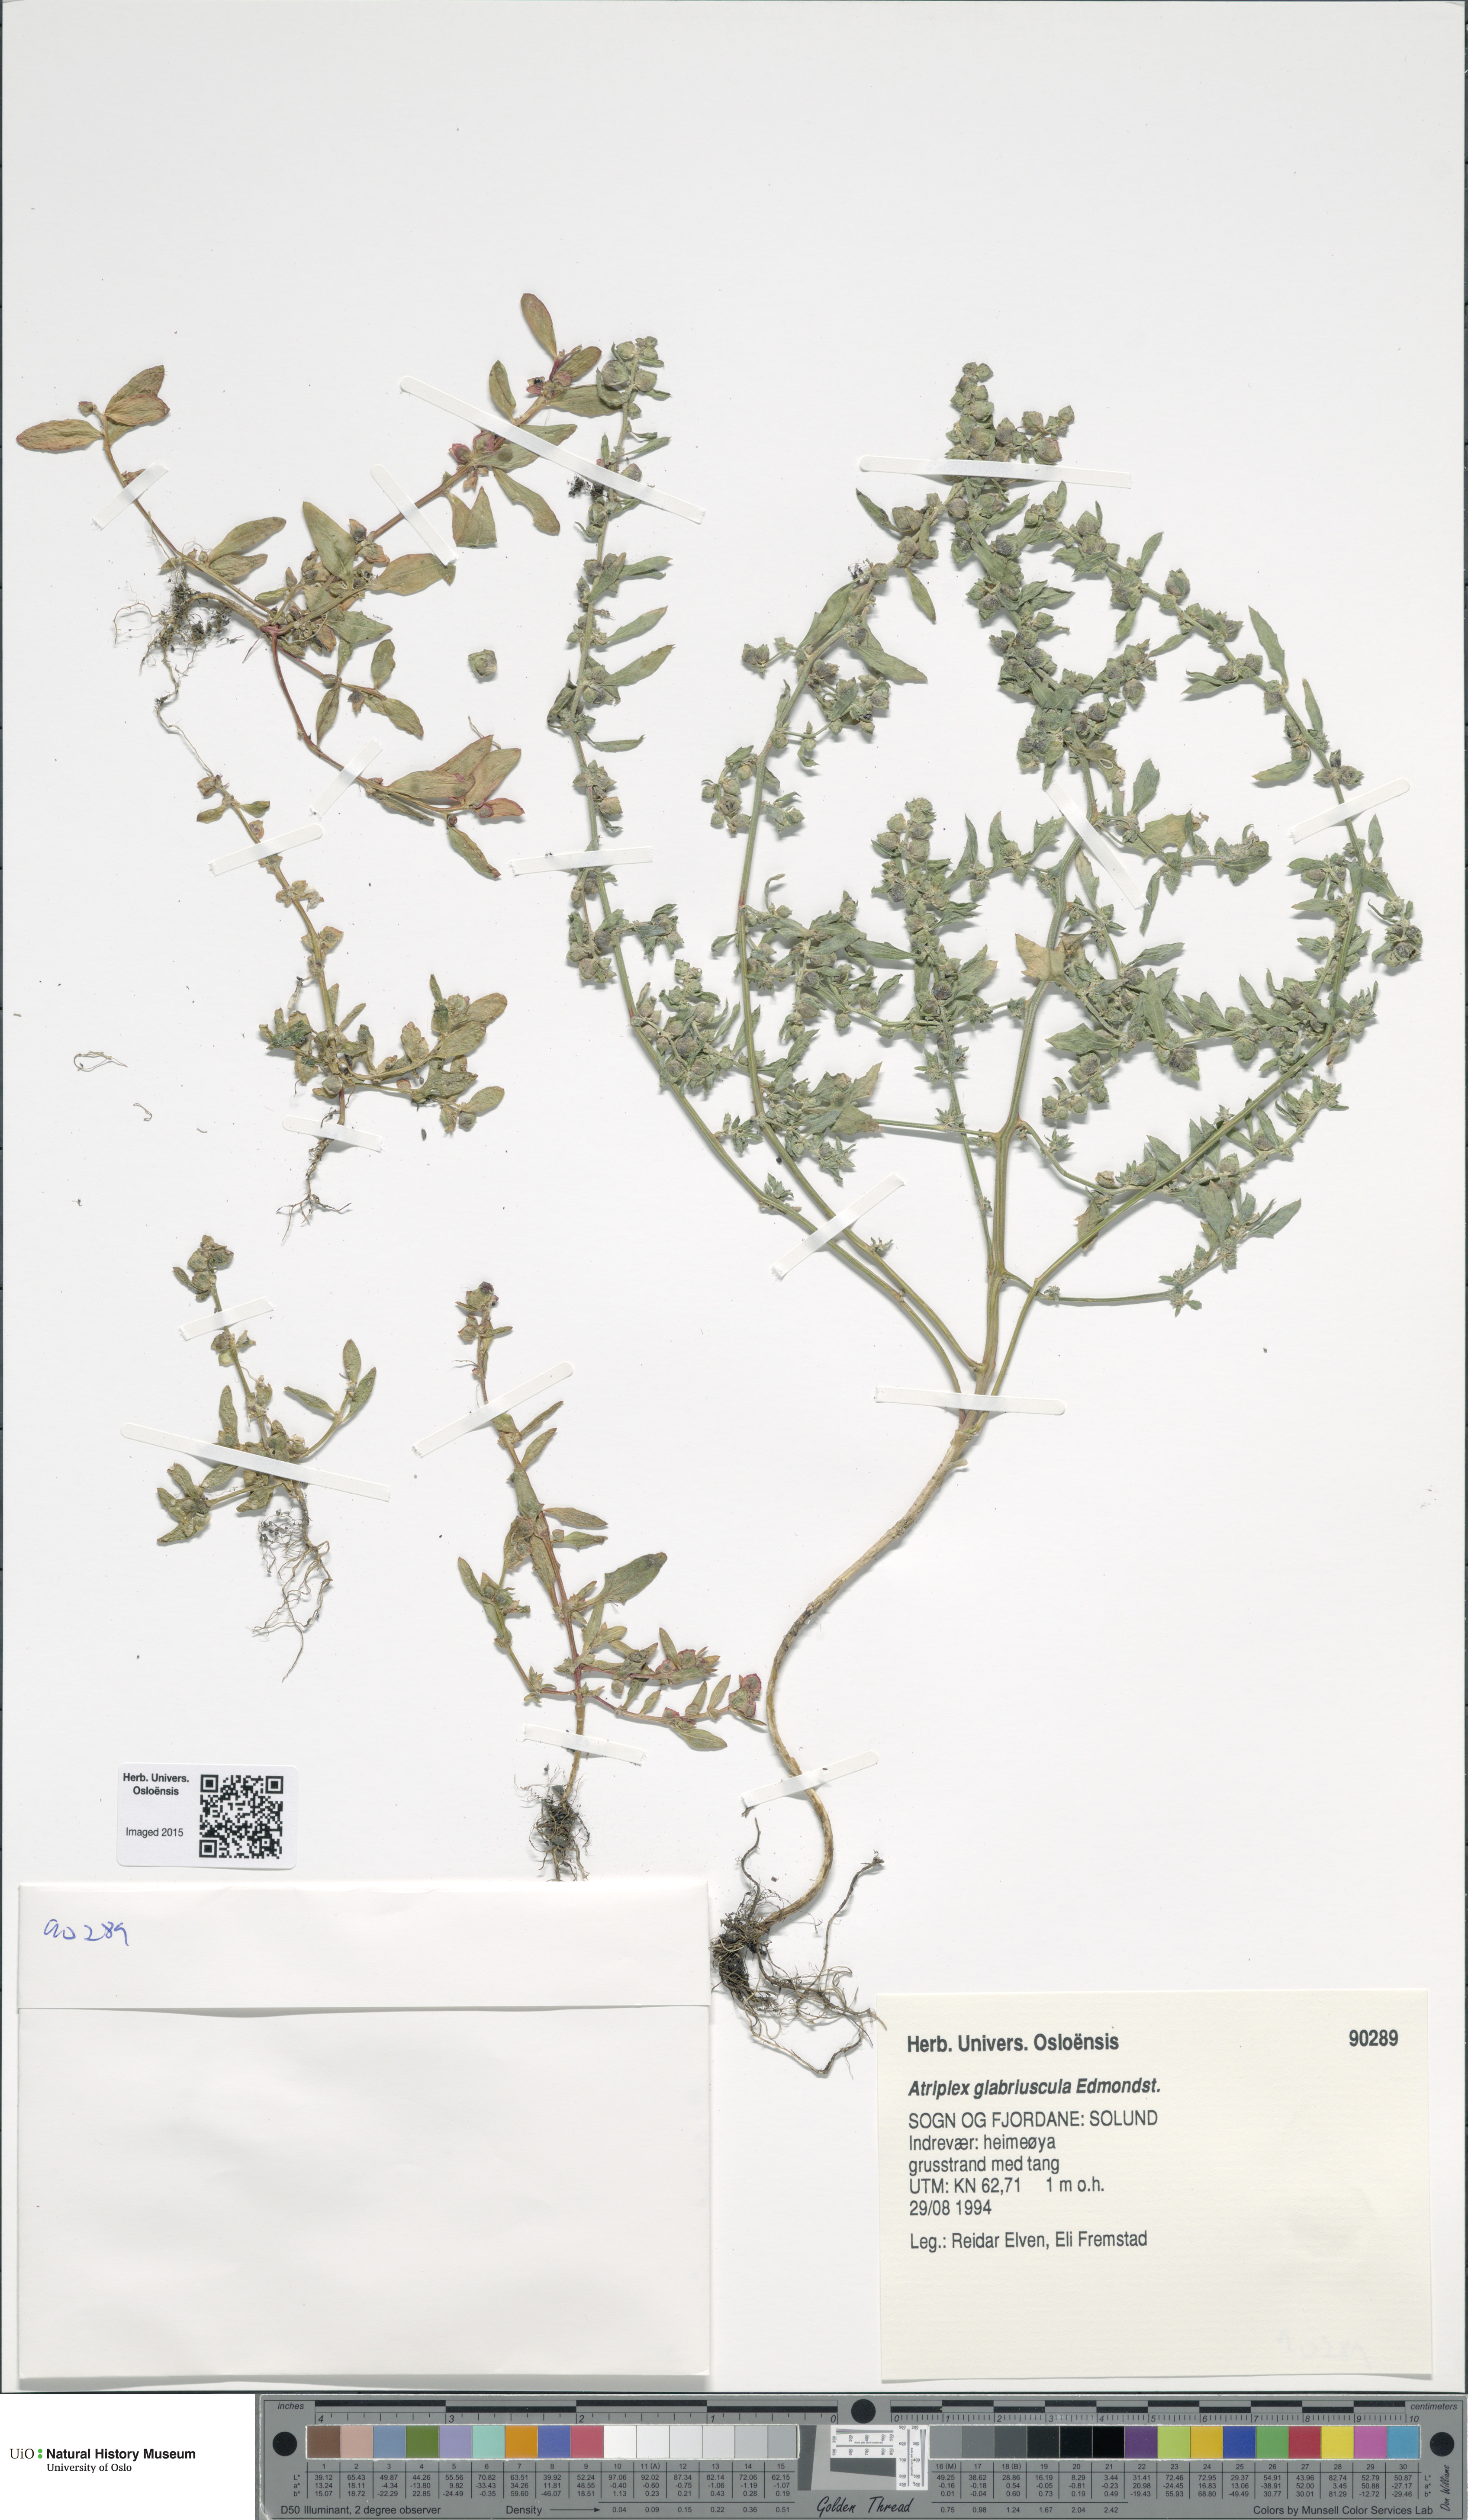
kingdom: Plantae
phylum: Tracheophyta
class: Magnoliopsida
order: Caryophyllales
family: Amaranthaceae
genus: Atriplex
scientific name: Atriplex glabriuscula
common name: Babington's orache
